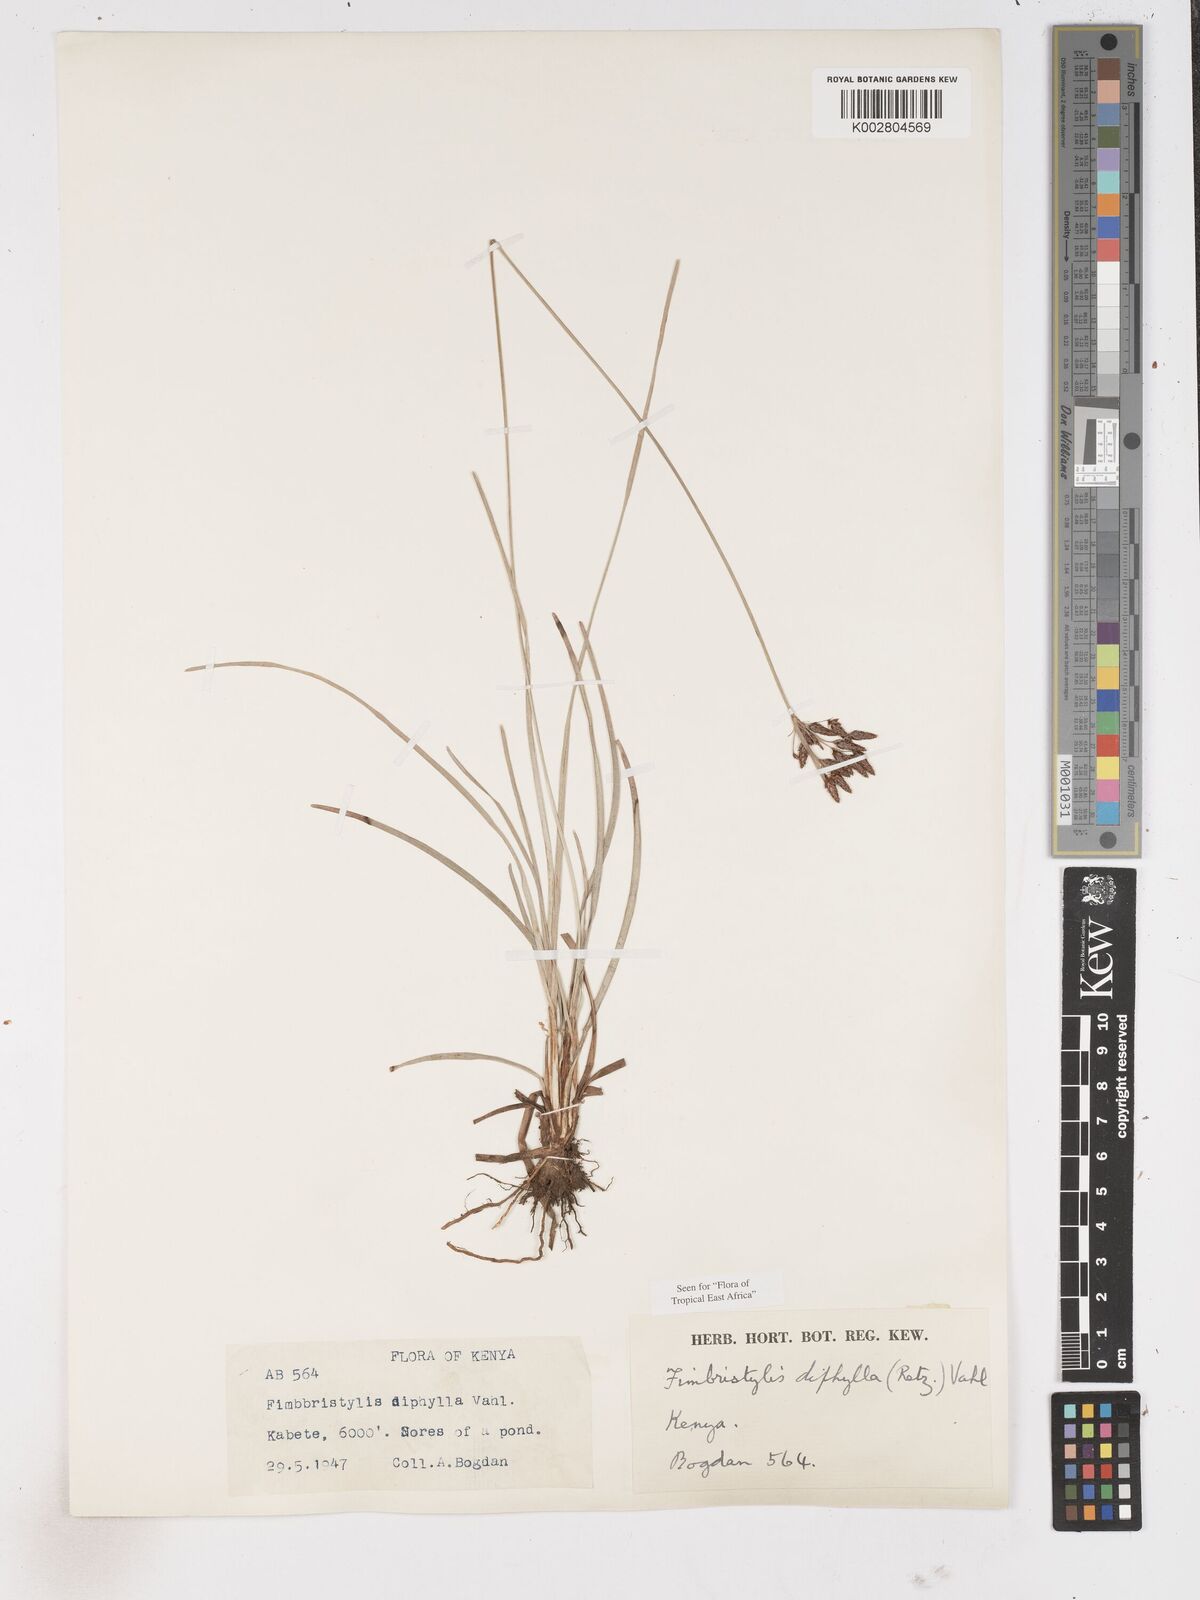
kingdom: Plantae
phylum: Tracheophyta
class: Liliopsida
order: Poales
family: Cyperaceae
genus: Fimbristylis
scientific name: Fimbristylis dichotoma
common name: Forked fimbry
